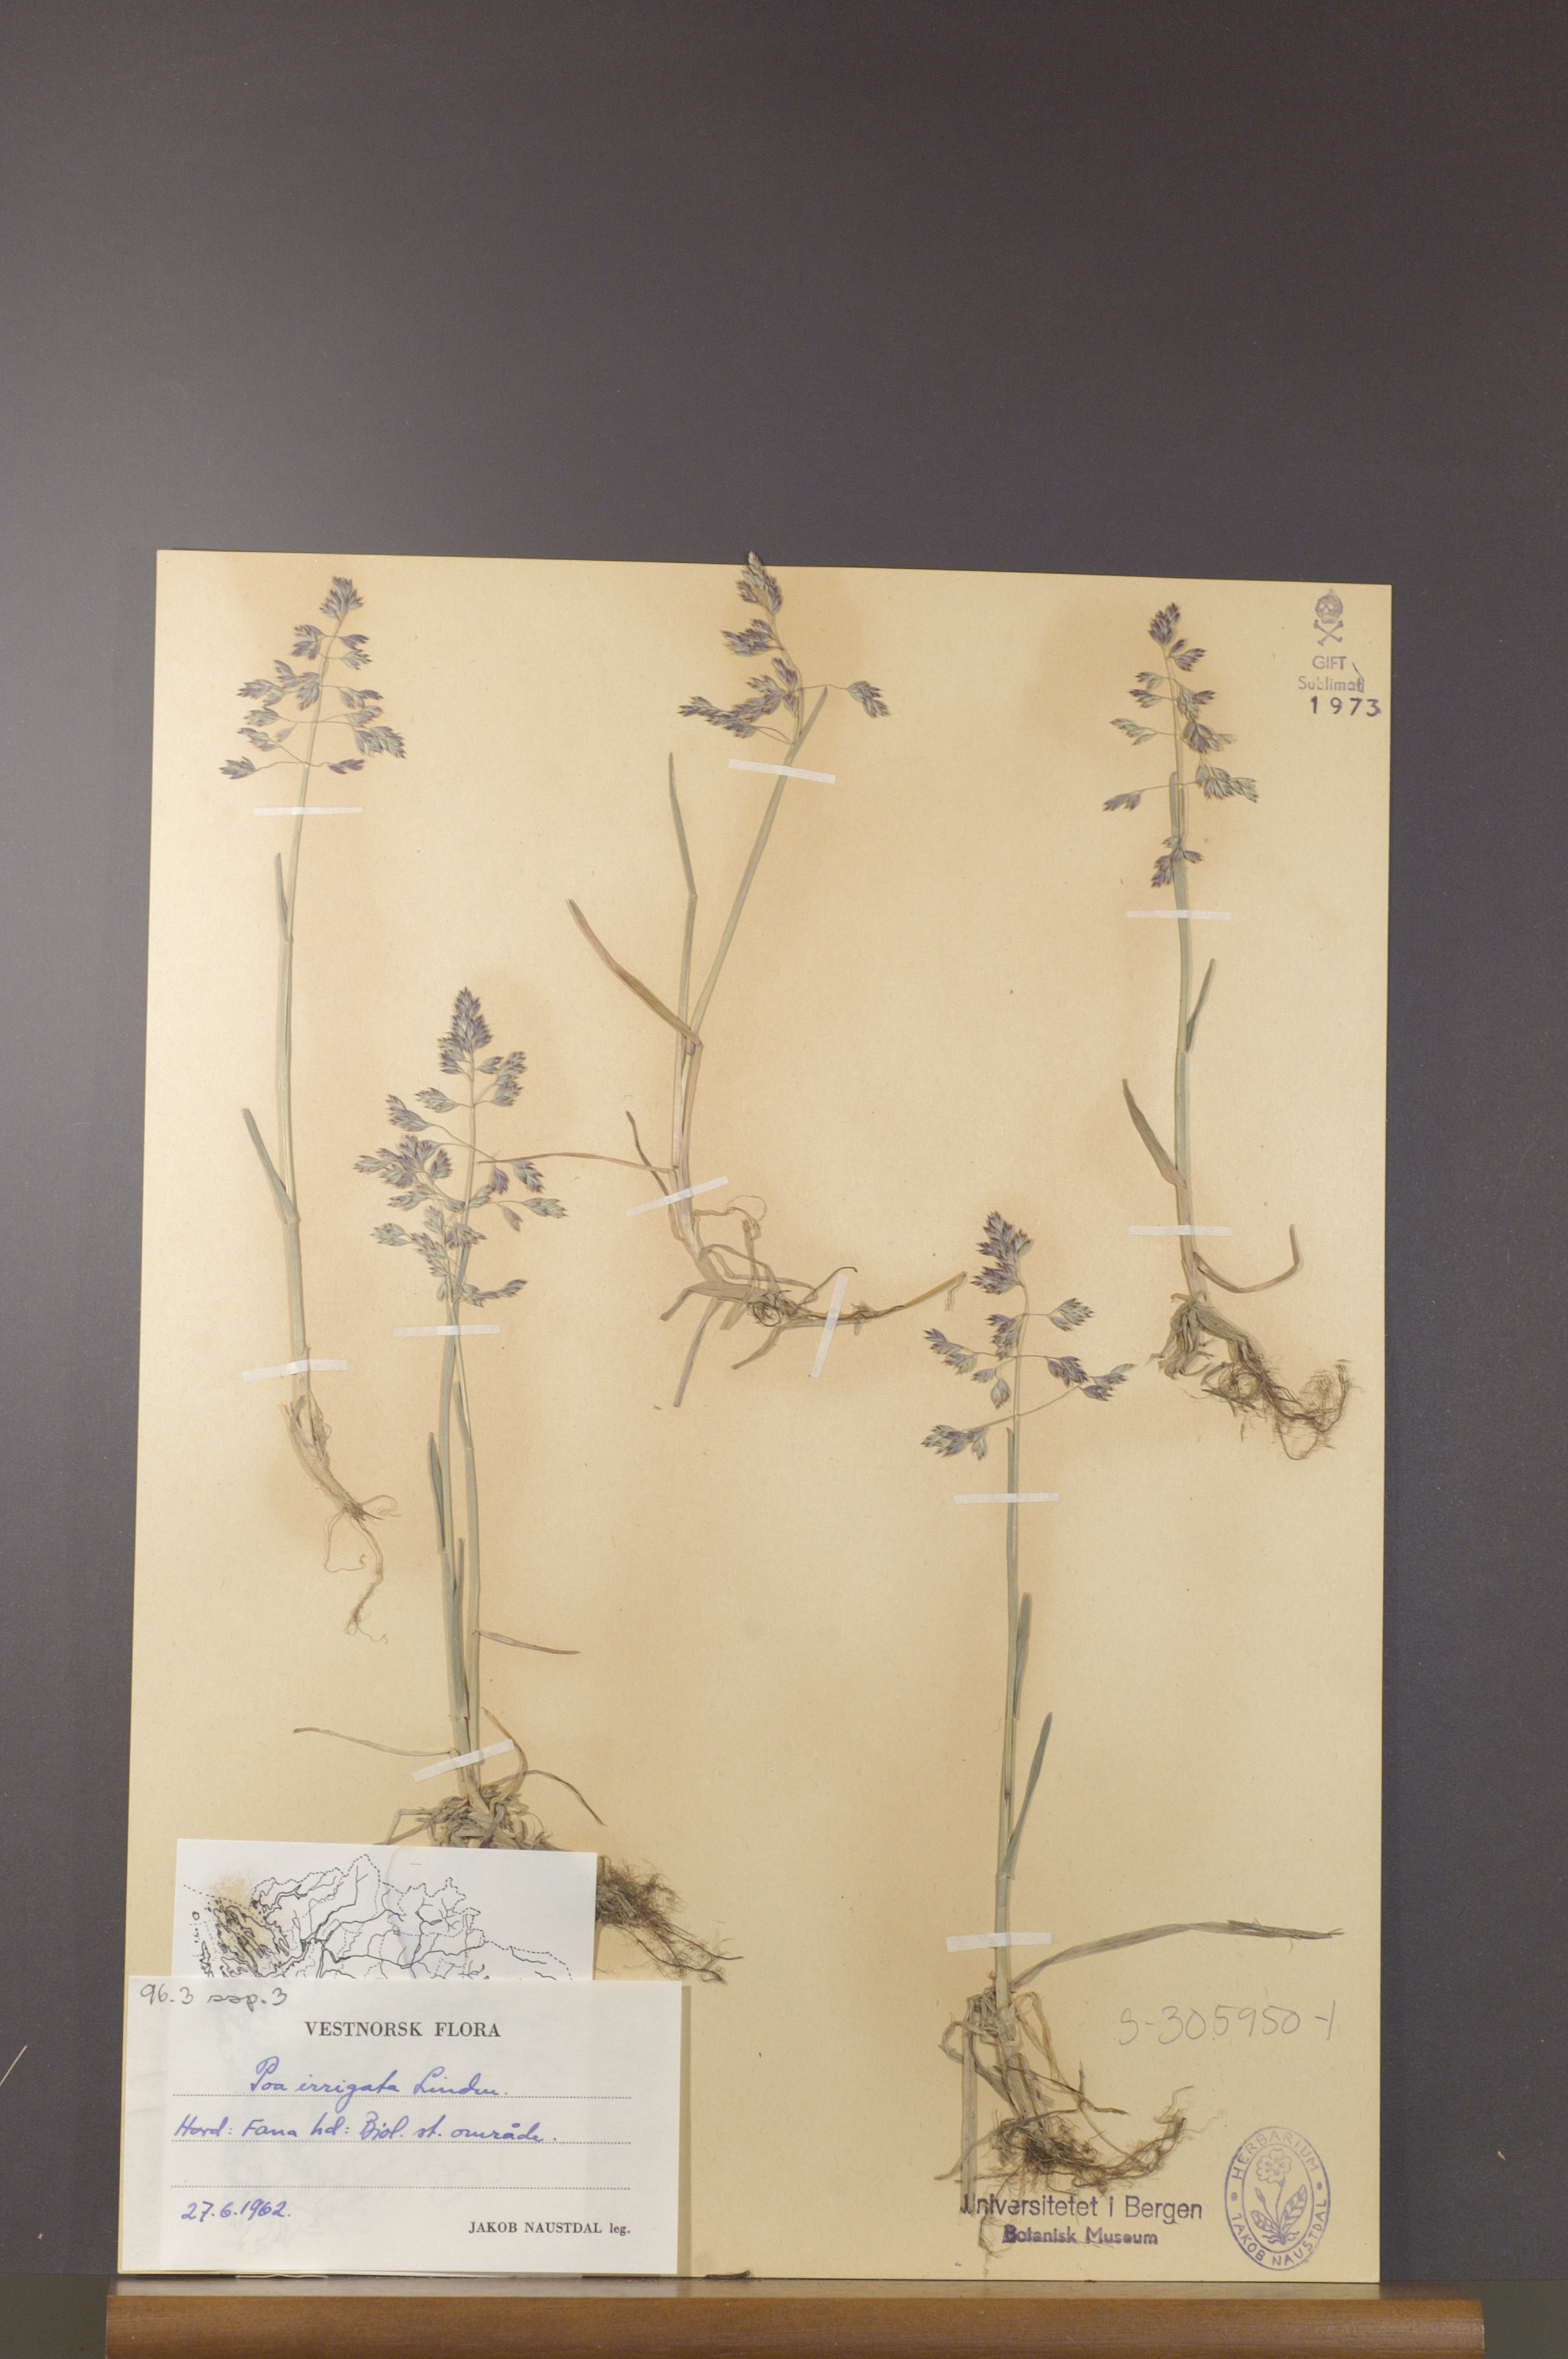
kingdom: Plantae
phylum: Tracheophyta
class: Liliopsida
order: Poales
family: Poaceae
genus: Poa
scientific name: Poa humilis
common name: Spreading meadow-grass
